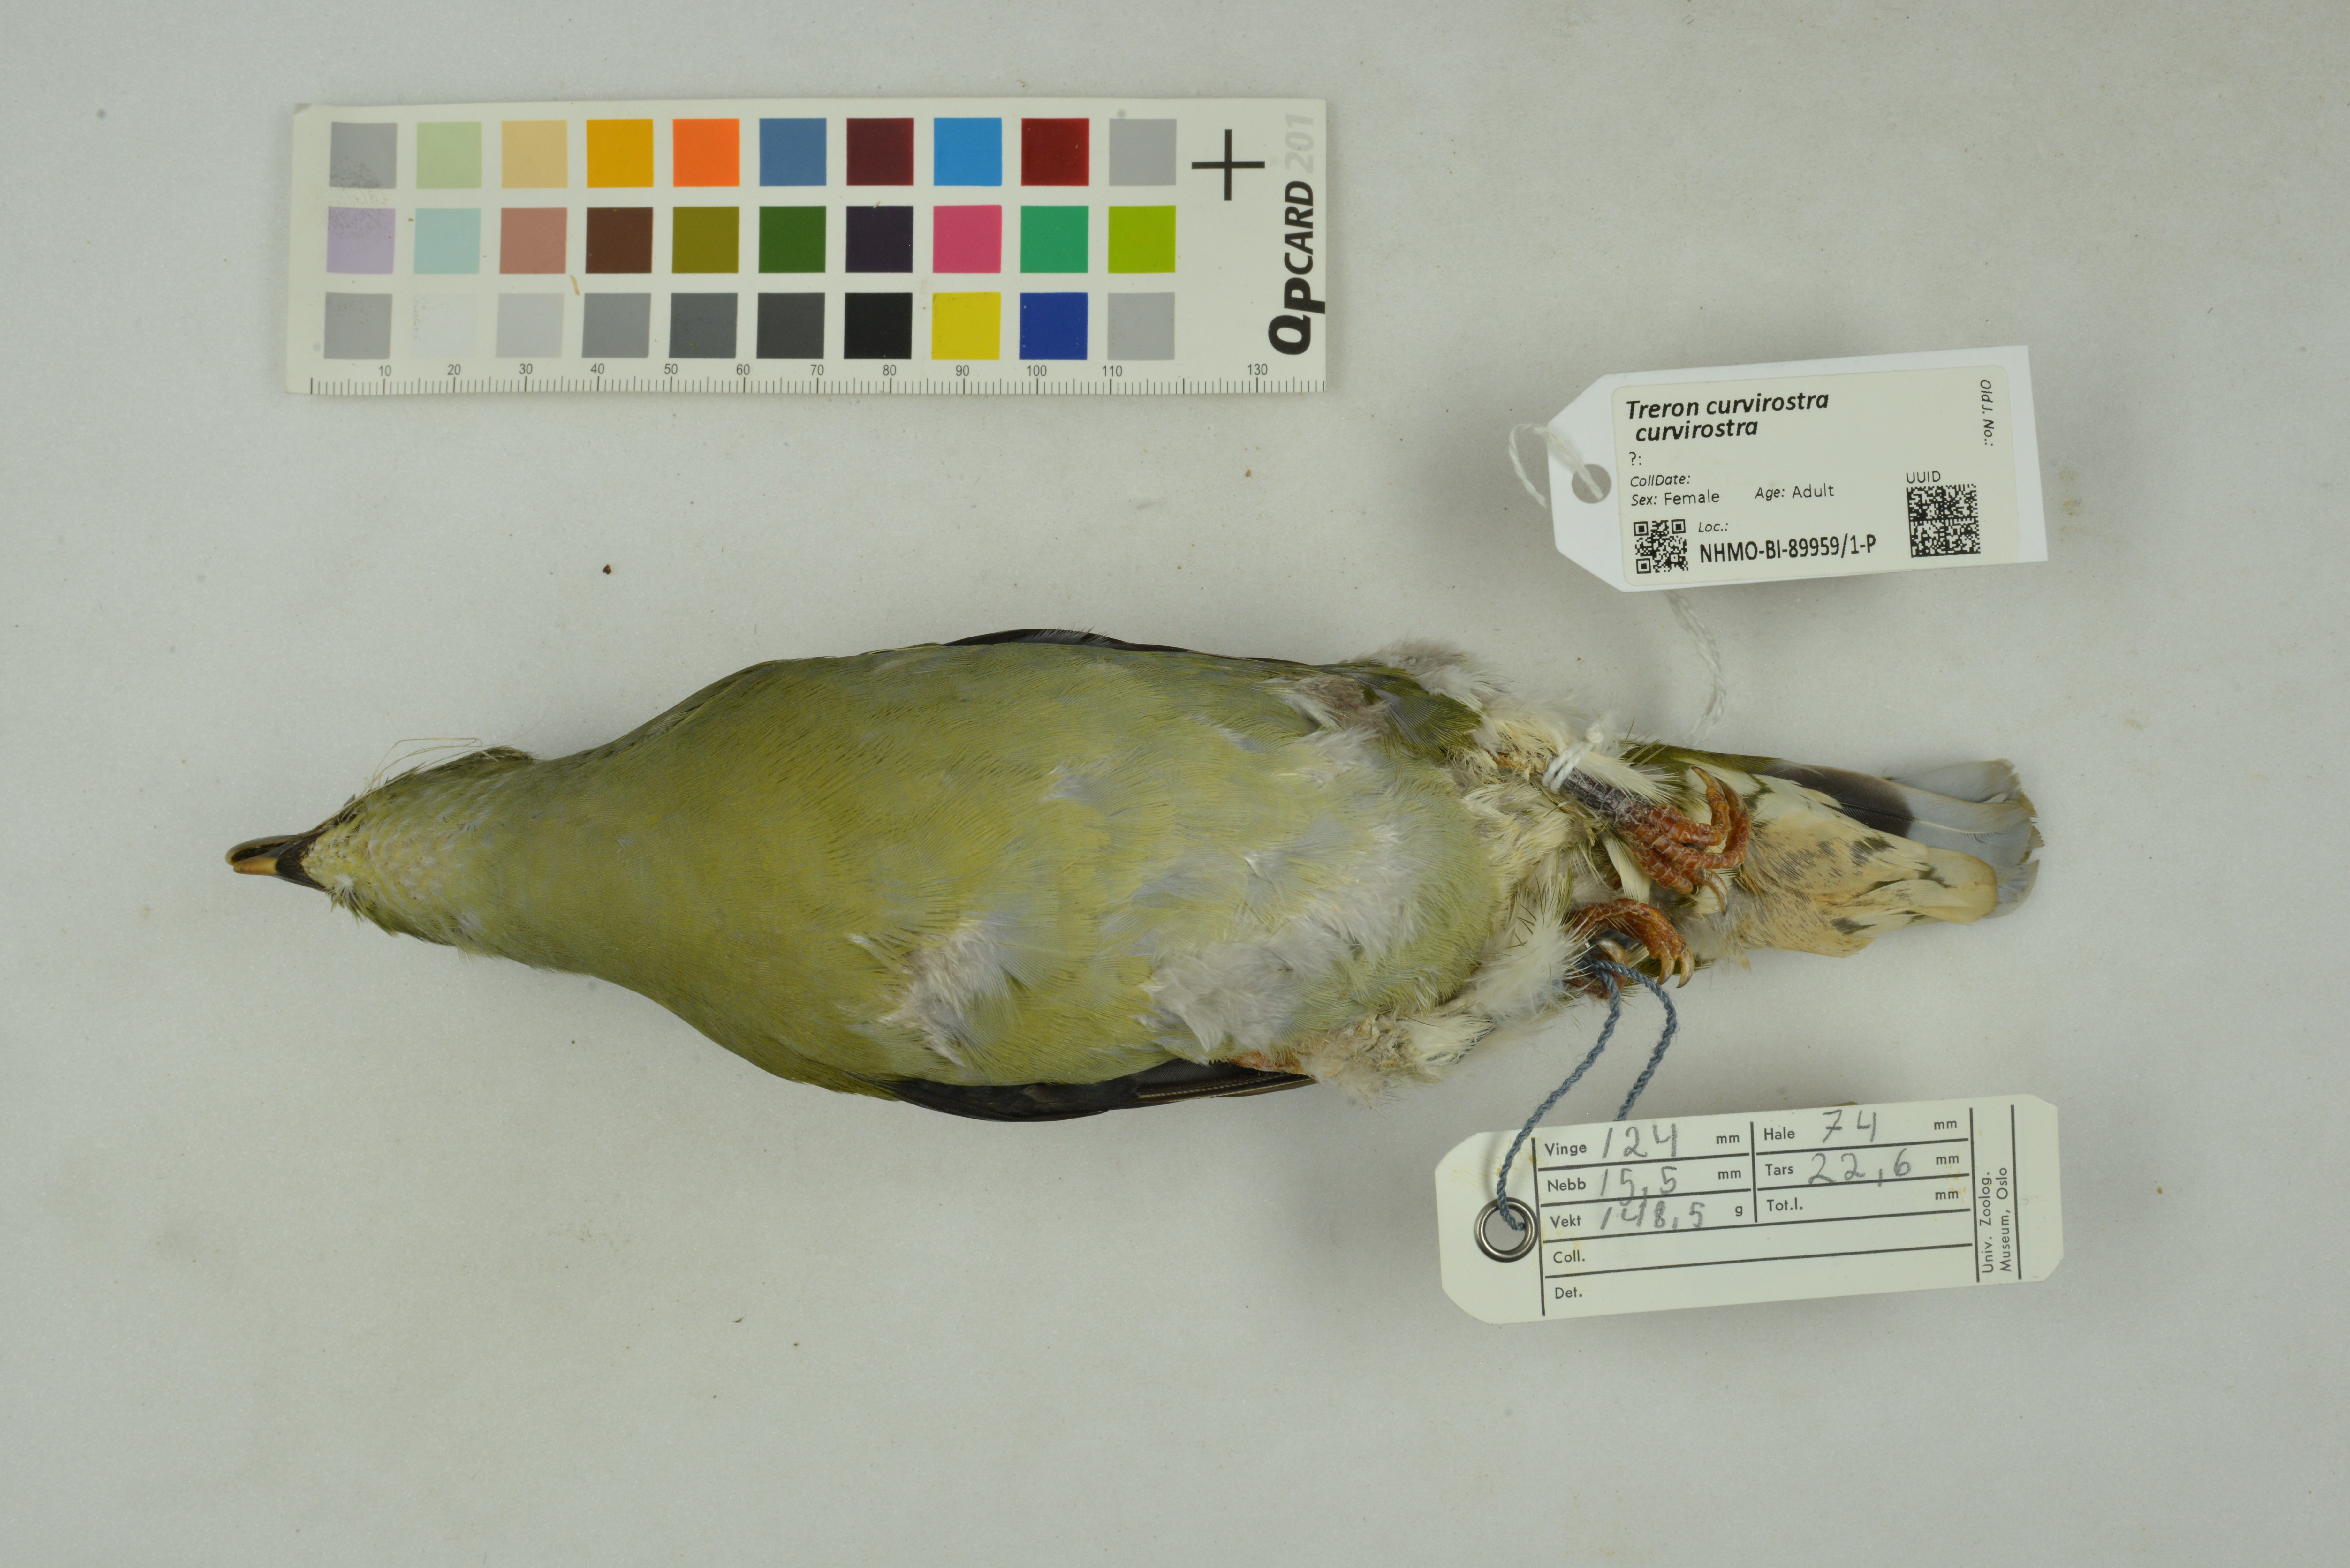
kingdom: Animalia
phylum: Chordata
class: Aves
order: Columbiformes
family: Columbidae
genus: Treron
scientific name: Treron curvirostra
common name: Thick-billed green pigeon
